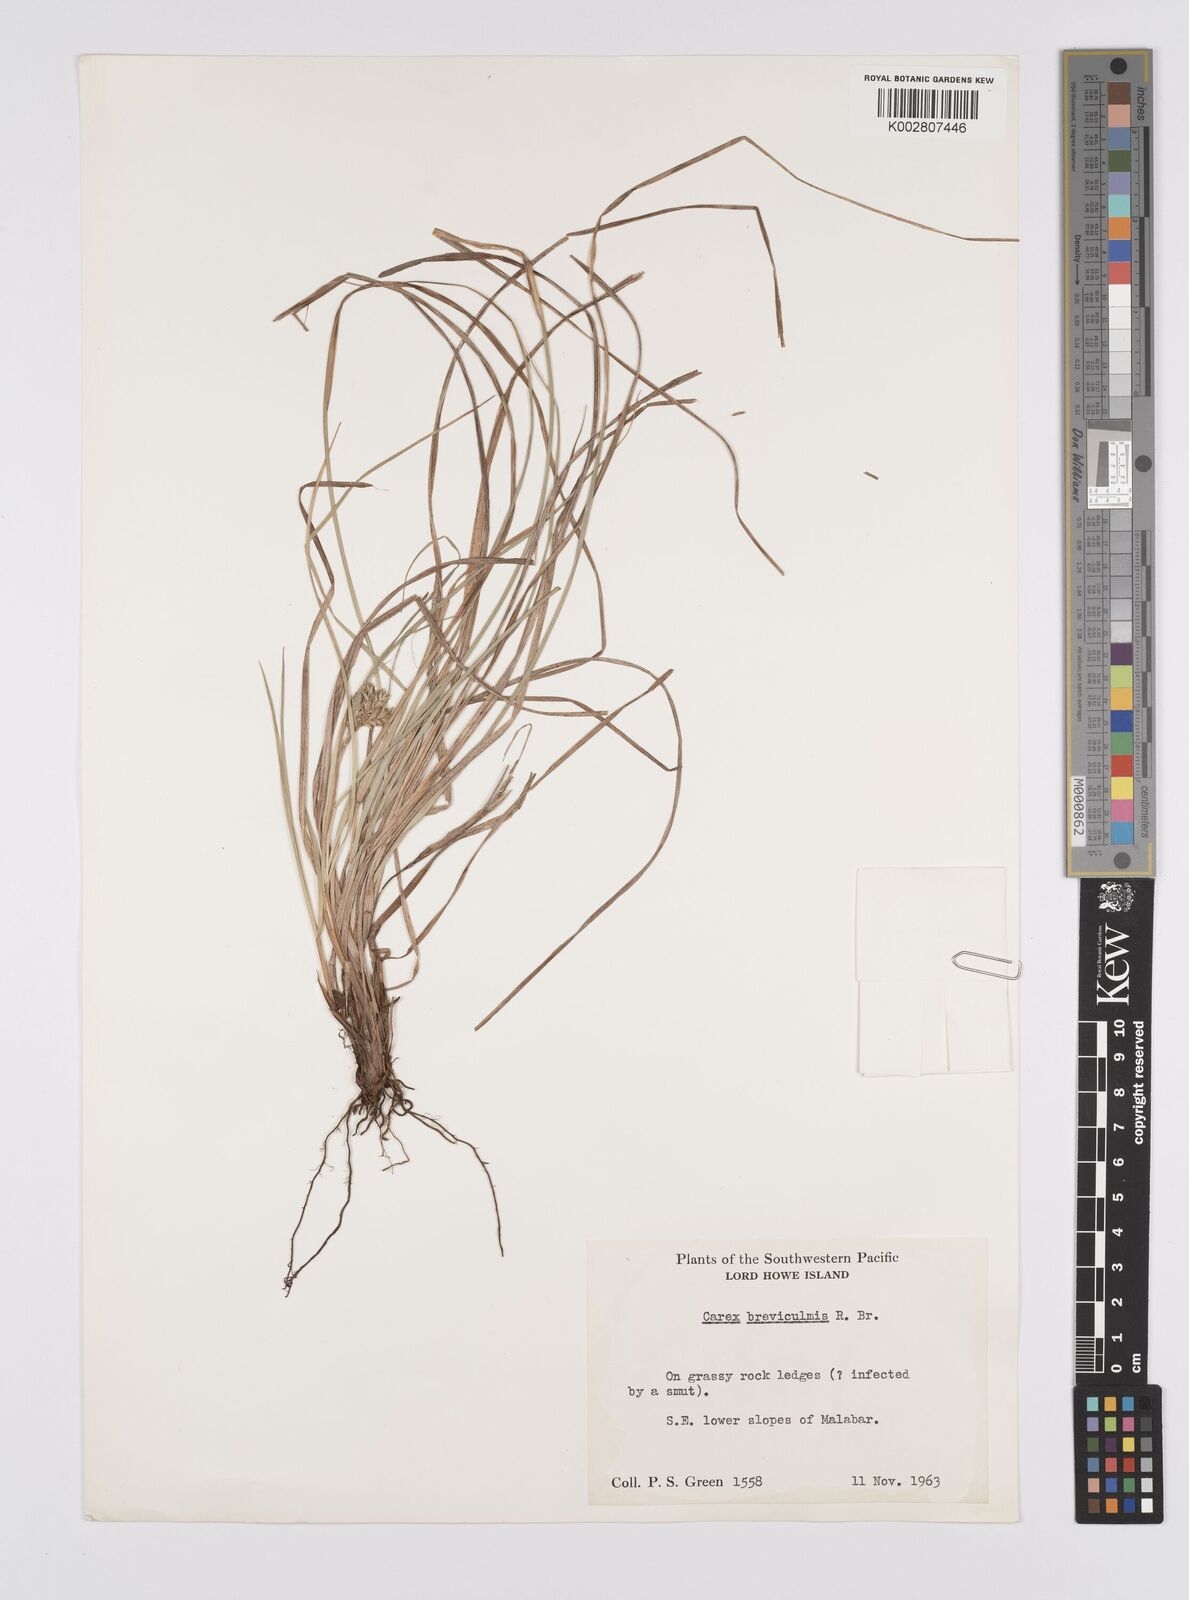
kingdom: Plantae
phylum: Tracheophyta
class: Liliopsida
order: Poales
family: Cyperaceae
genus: Carex
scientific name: Carex breviculmis
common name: Asian shortstem sedge
